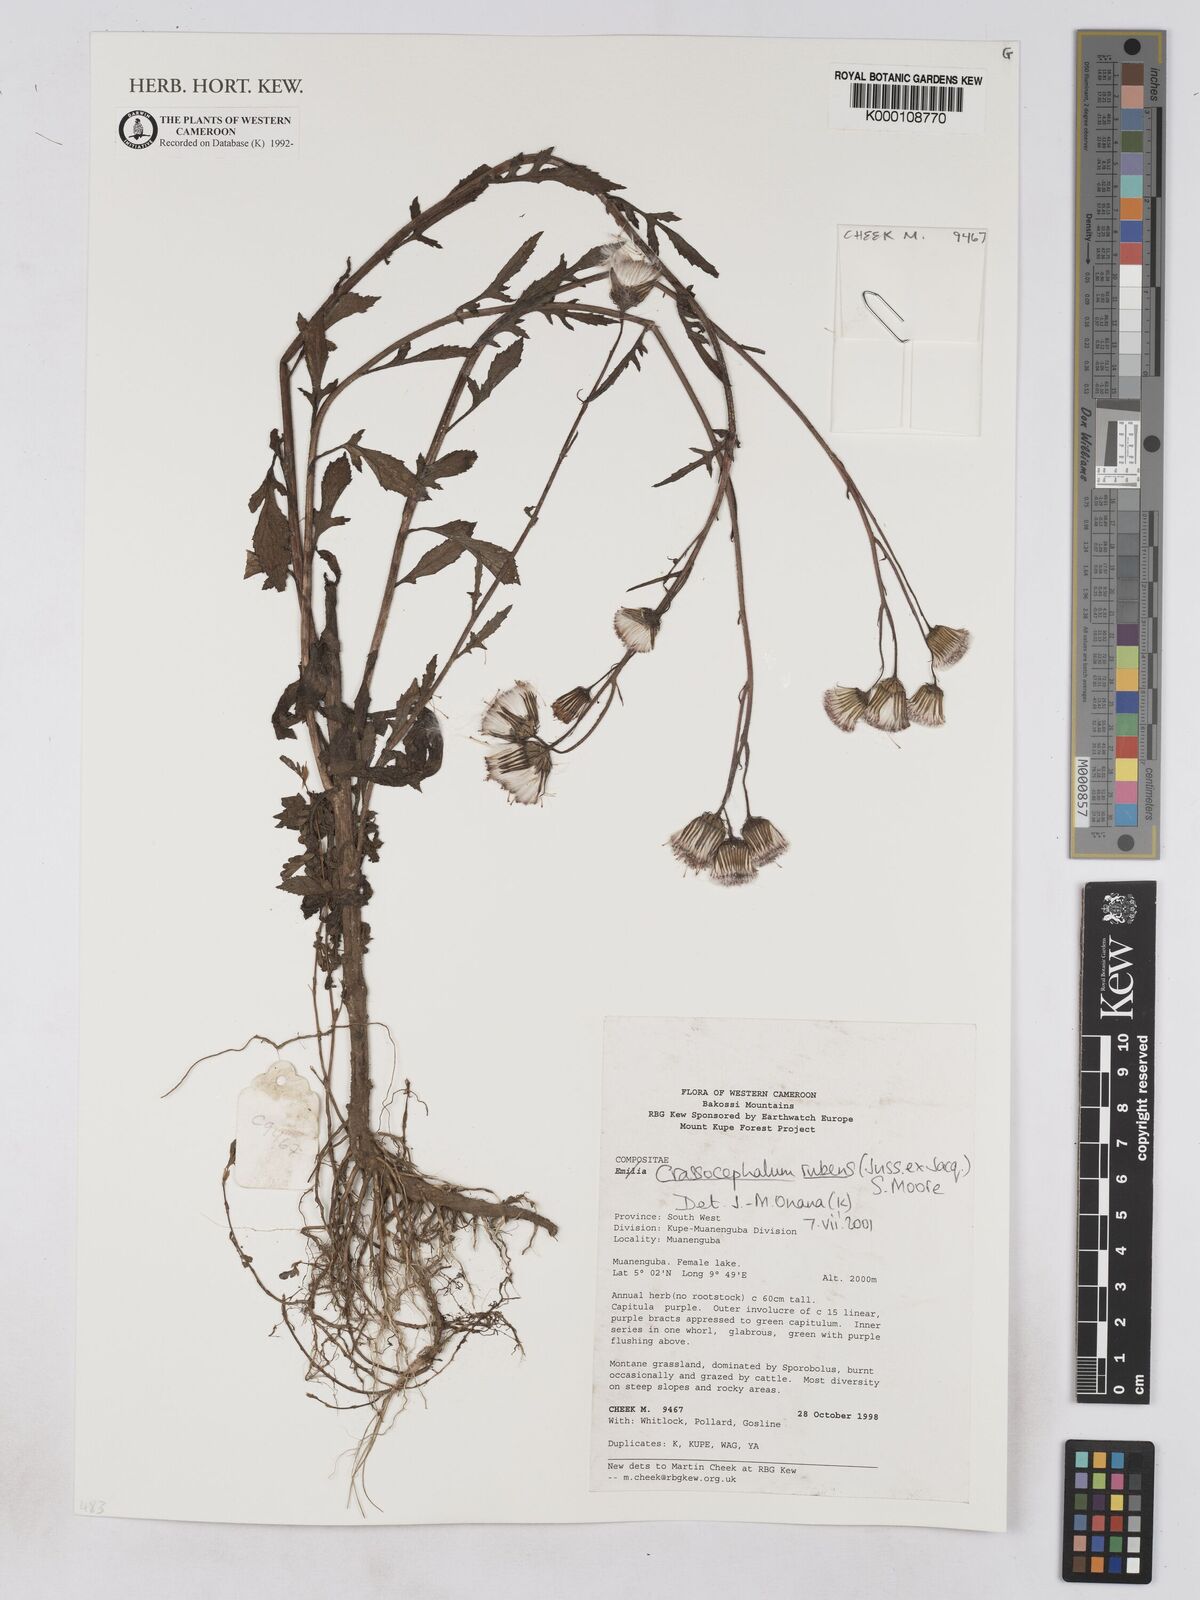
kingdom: Plantae
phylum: Tracheophyta
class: Magnoliopsida
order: Asterales
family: Asteraceae
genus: Crassocephalum
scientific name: Crassocephalum rubens
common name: Yoruban bologi
